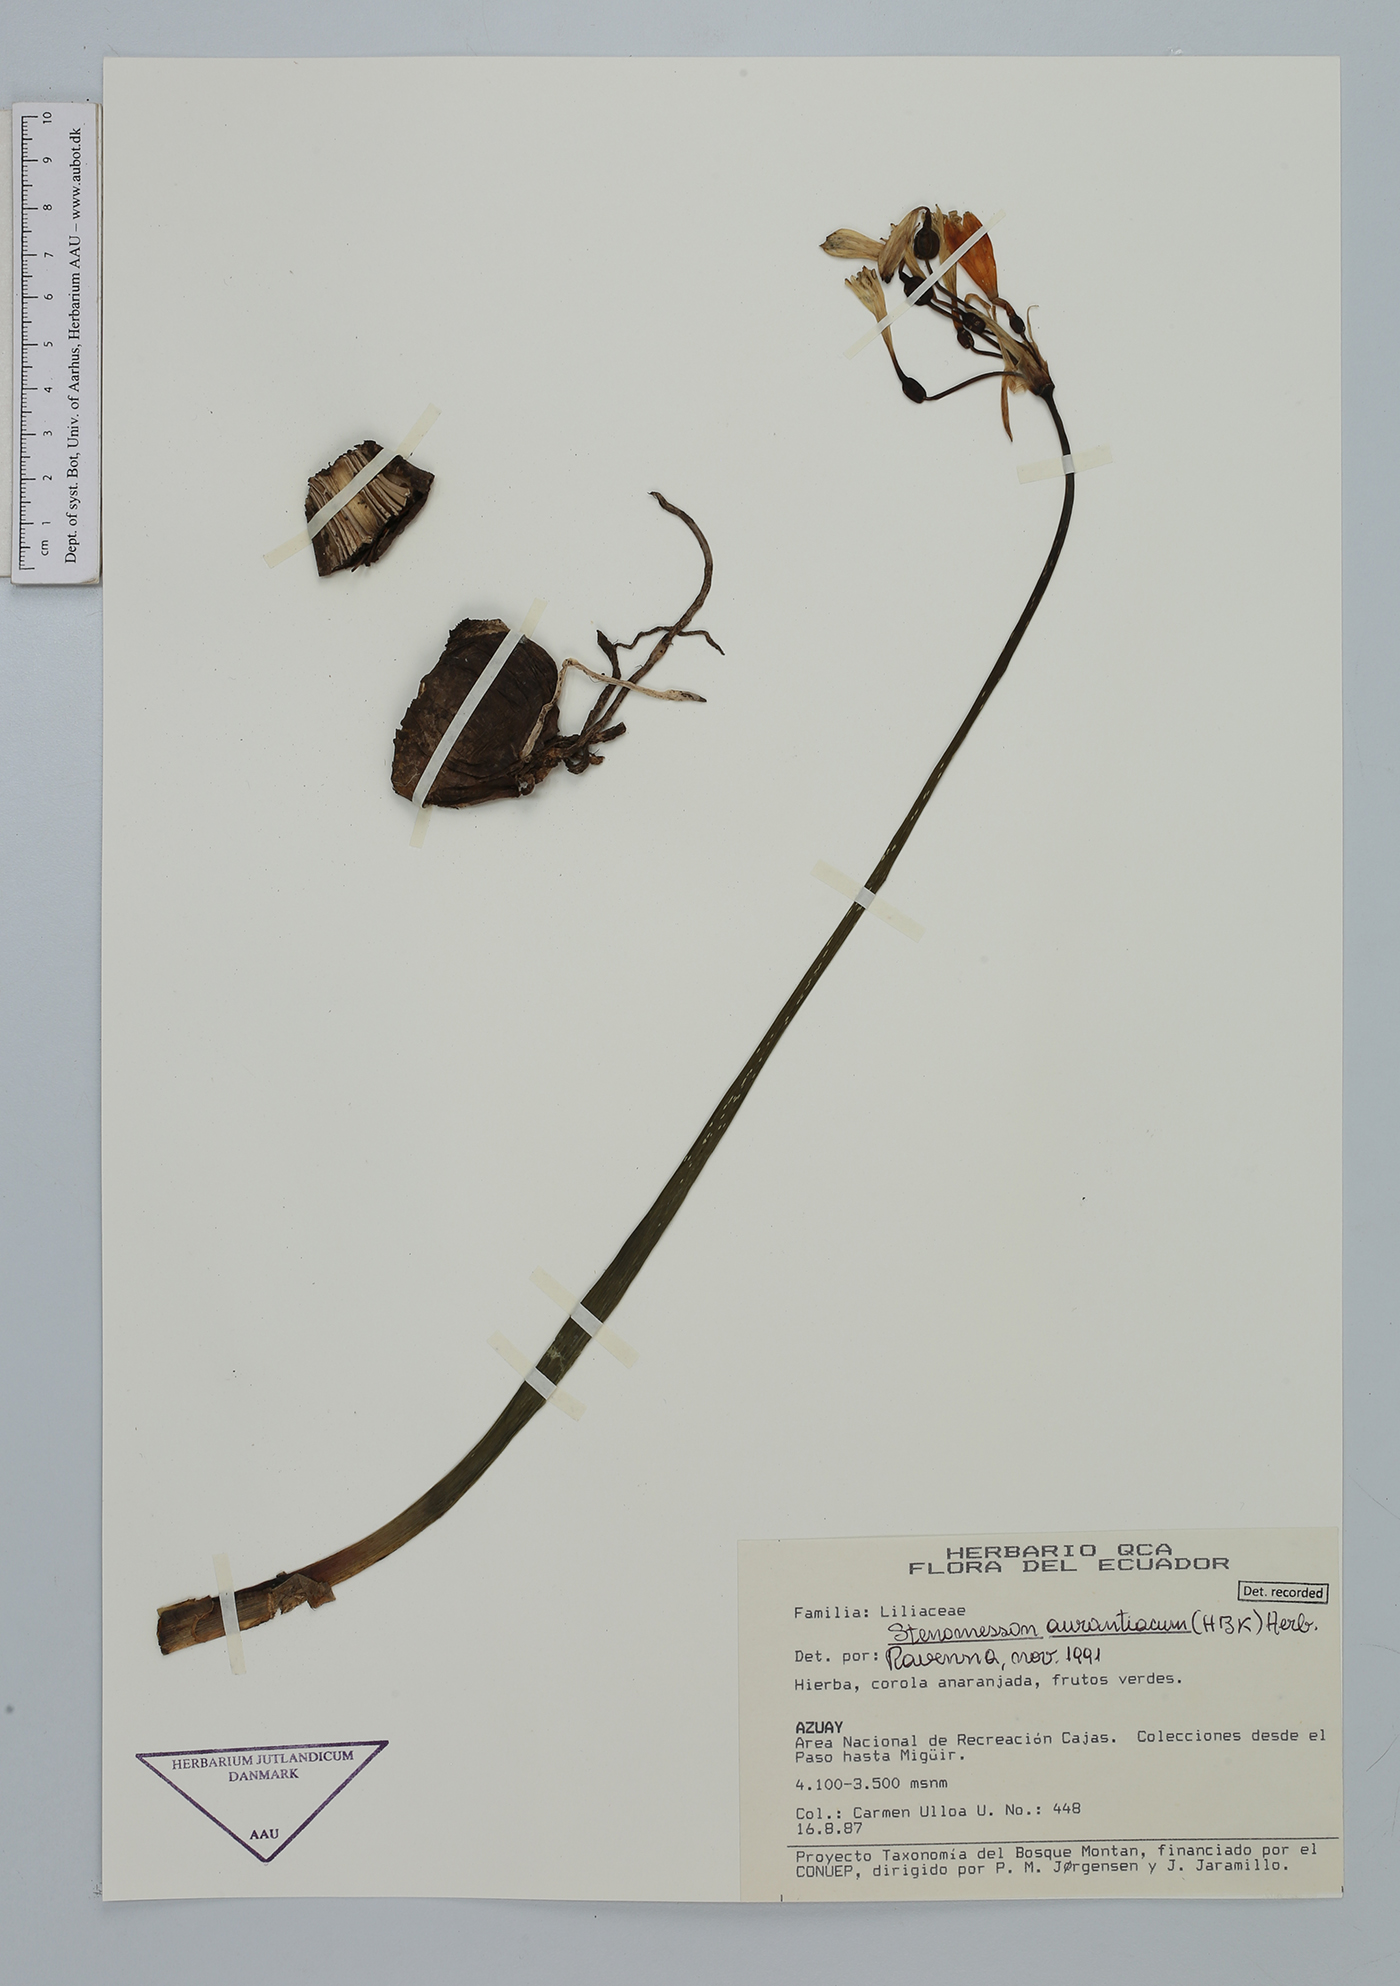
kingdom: Plantae
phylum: Tracheophyta
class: Liliopsida
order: Asparagales
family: Amaryllidaceae
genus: Stenomesson
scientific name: Stenomesson aurantiacum
